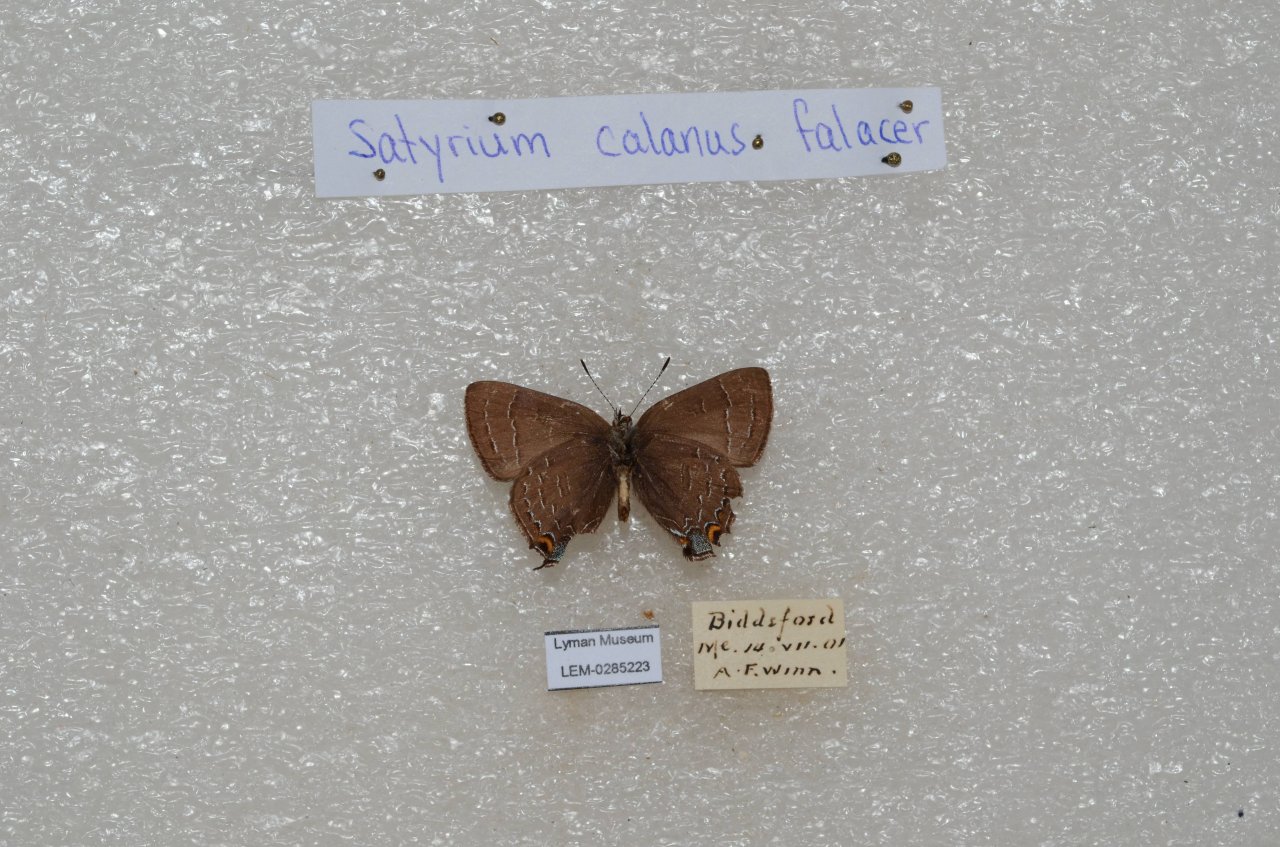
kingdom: Animalia
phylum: Arthropoda
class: Insecta
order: Lepidoptera
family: Lycaenidae
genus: Satyrium
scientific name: Satyrium calanus
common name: Banded Hairstreak
